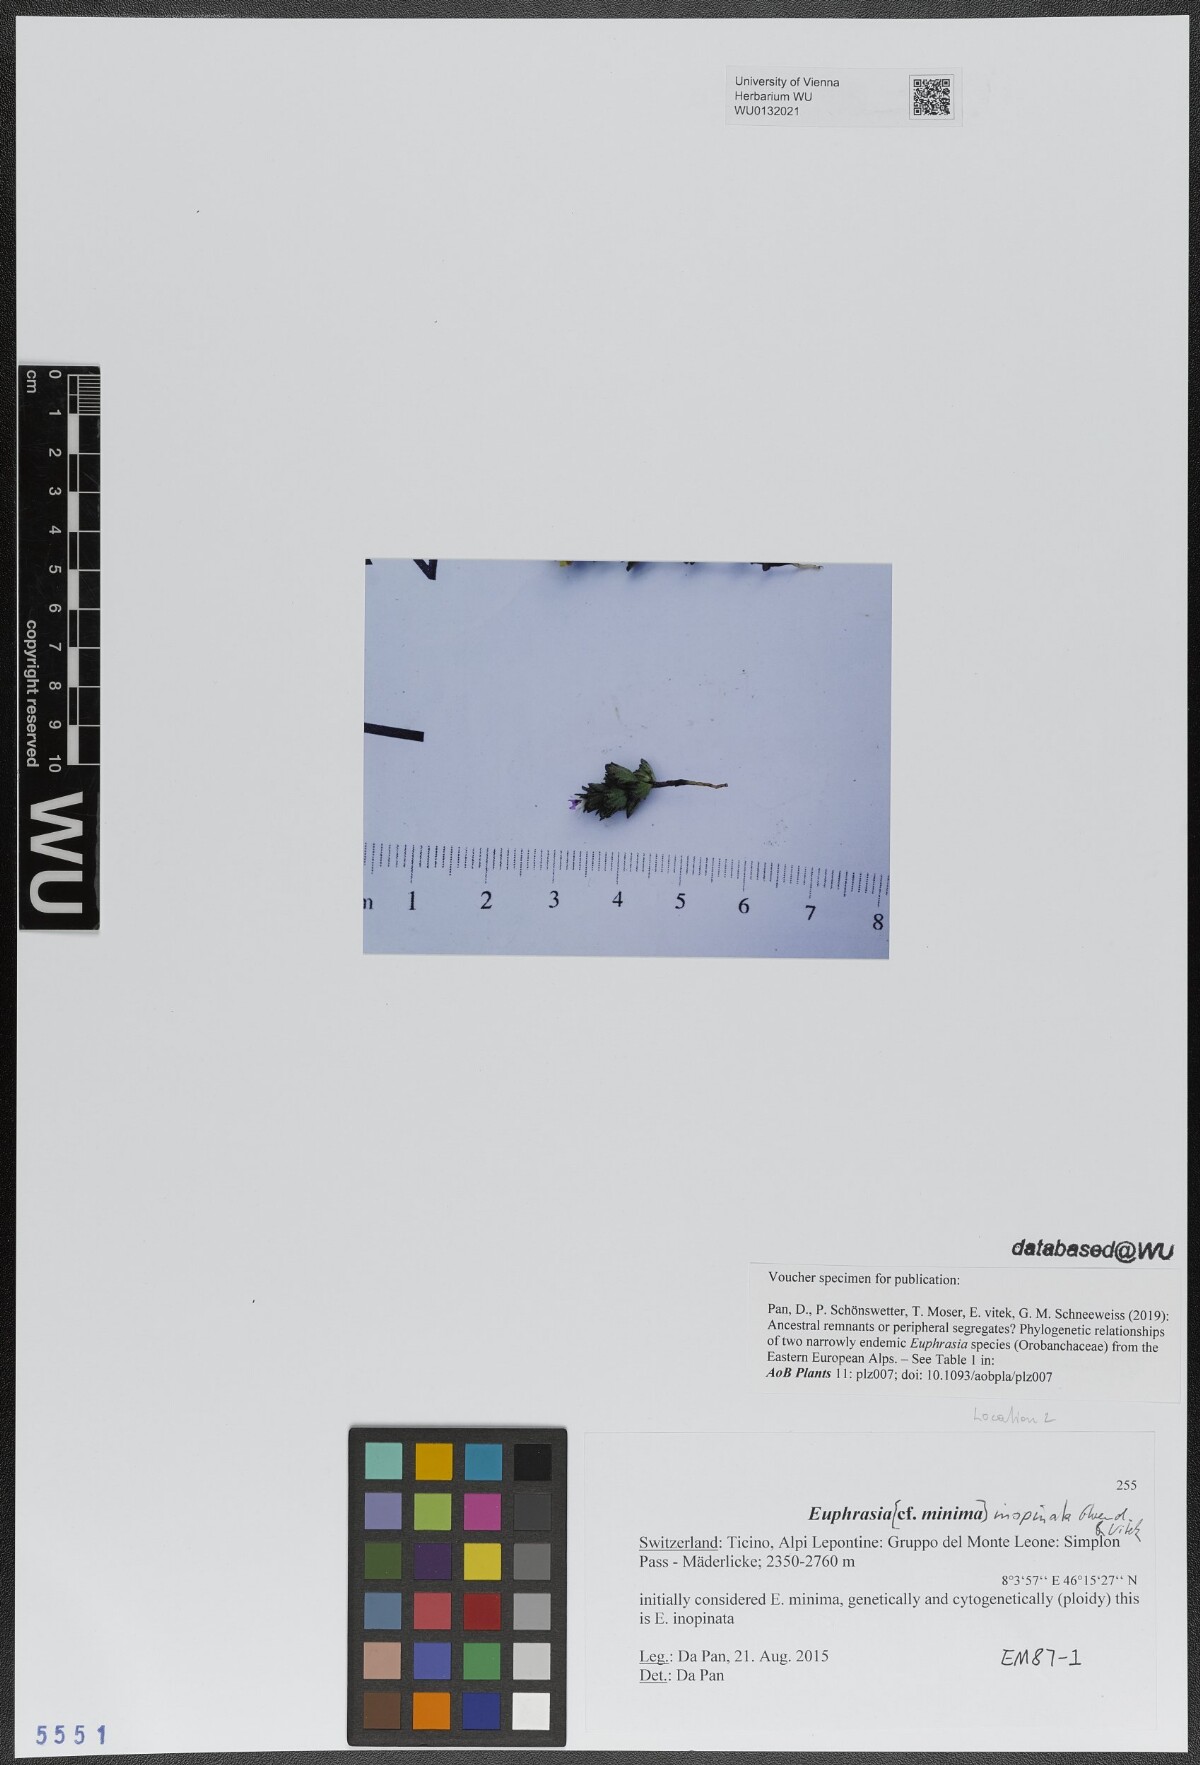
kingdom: Plantae
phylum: Tracheophyta
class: Magnoliopsida
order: Lamiales
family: Orobanchaceae
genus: Euphrasia
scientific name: Euphrasia inopinata
